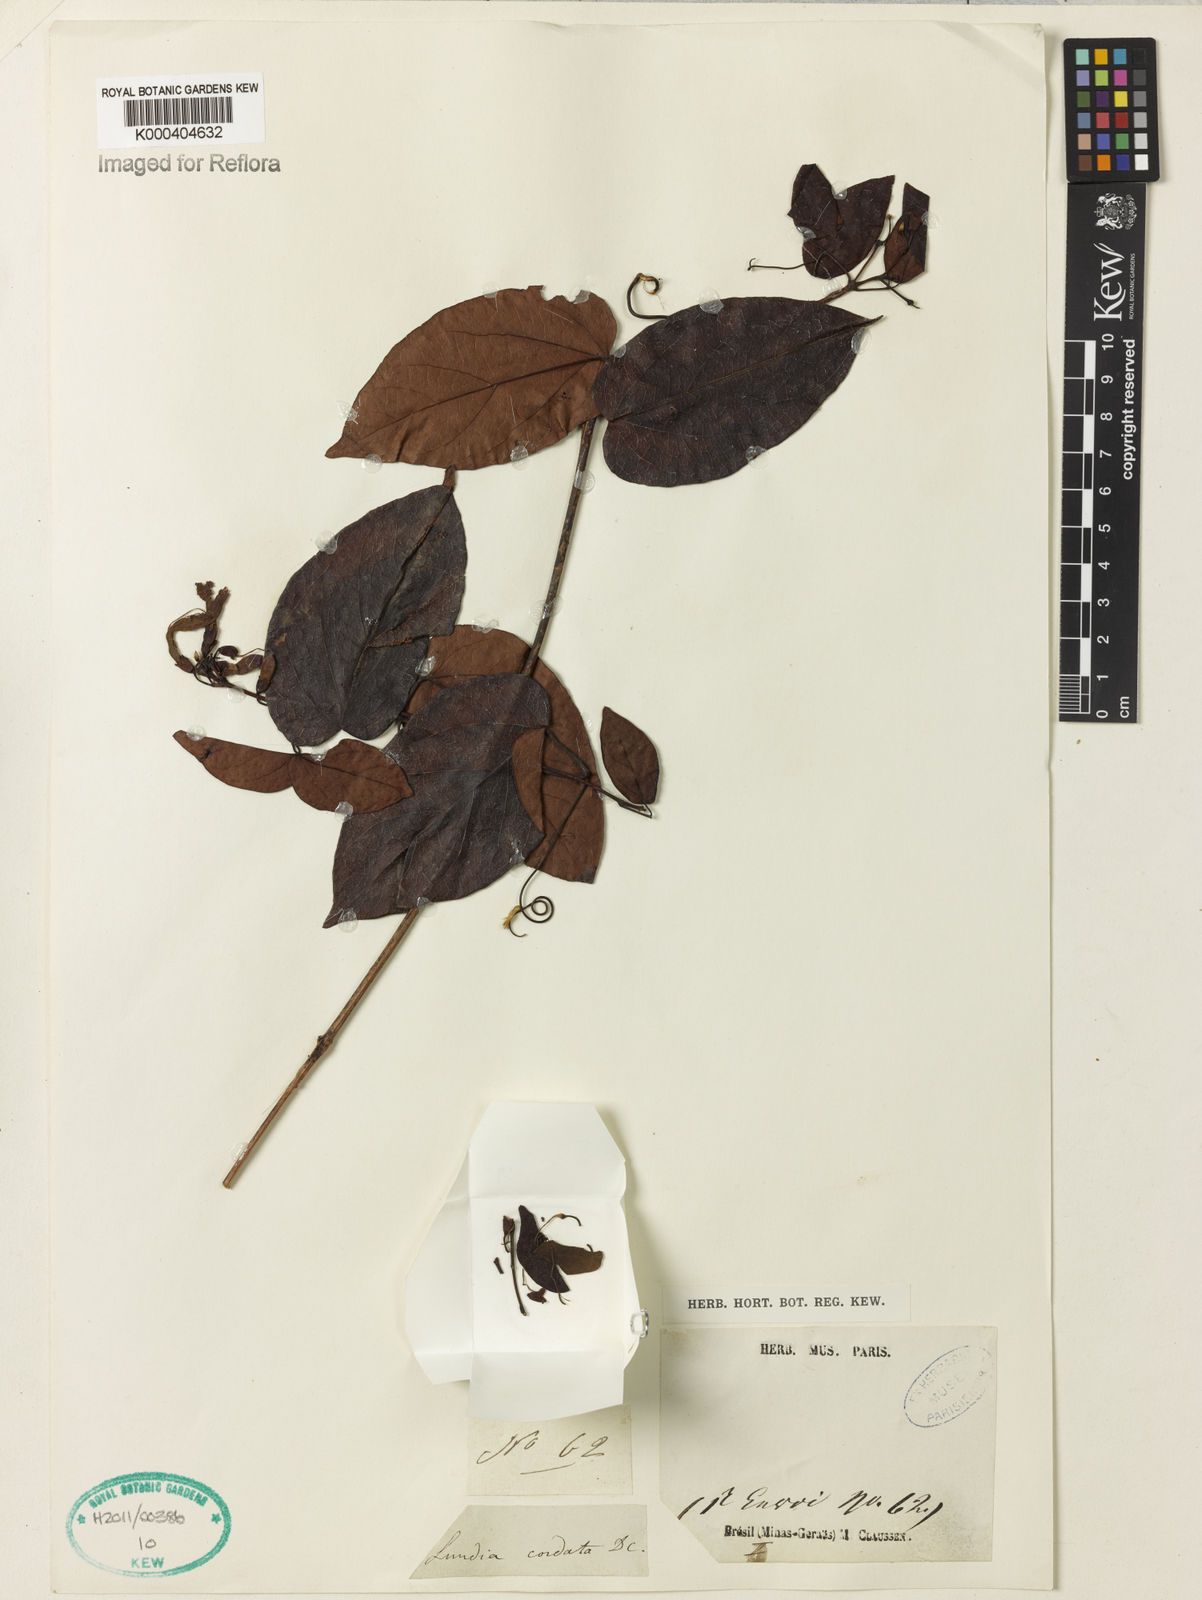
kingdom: Plantae
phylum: Tracheophyta
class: Magnoliopsida
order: Lamiales
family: Bignoniaceae
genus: Lundia
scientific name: Lundia corymbifera
